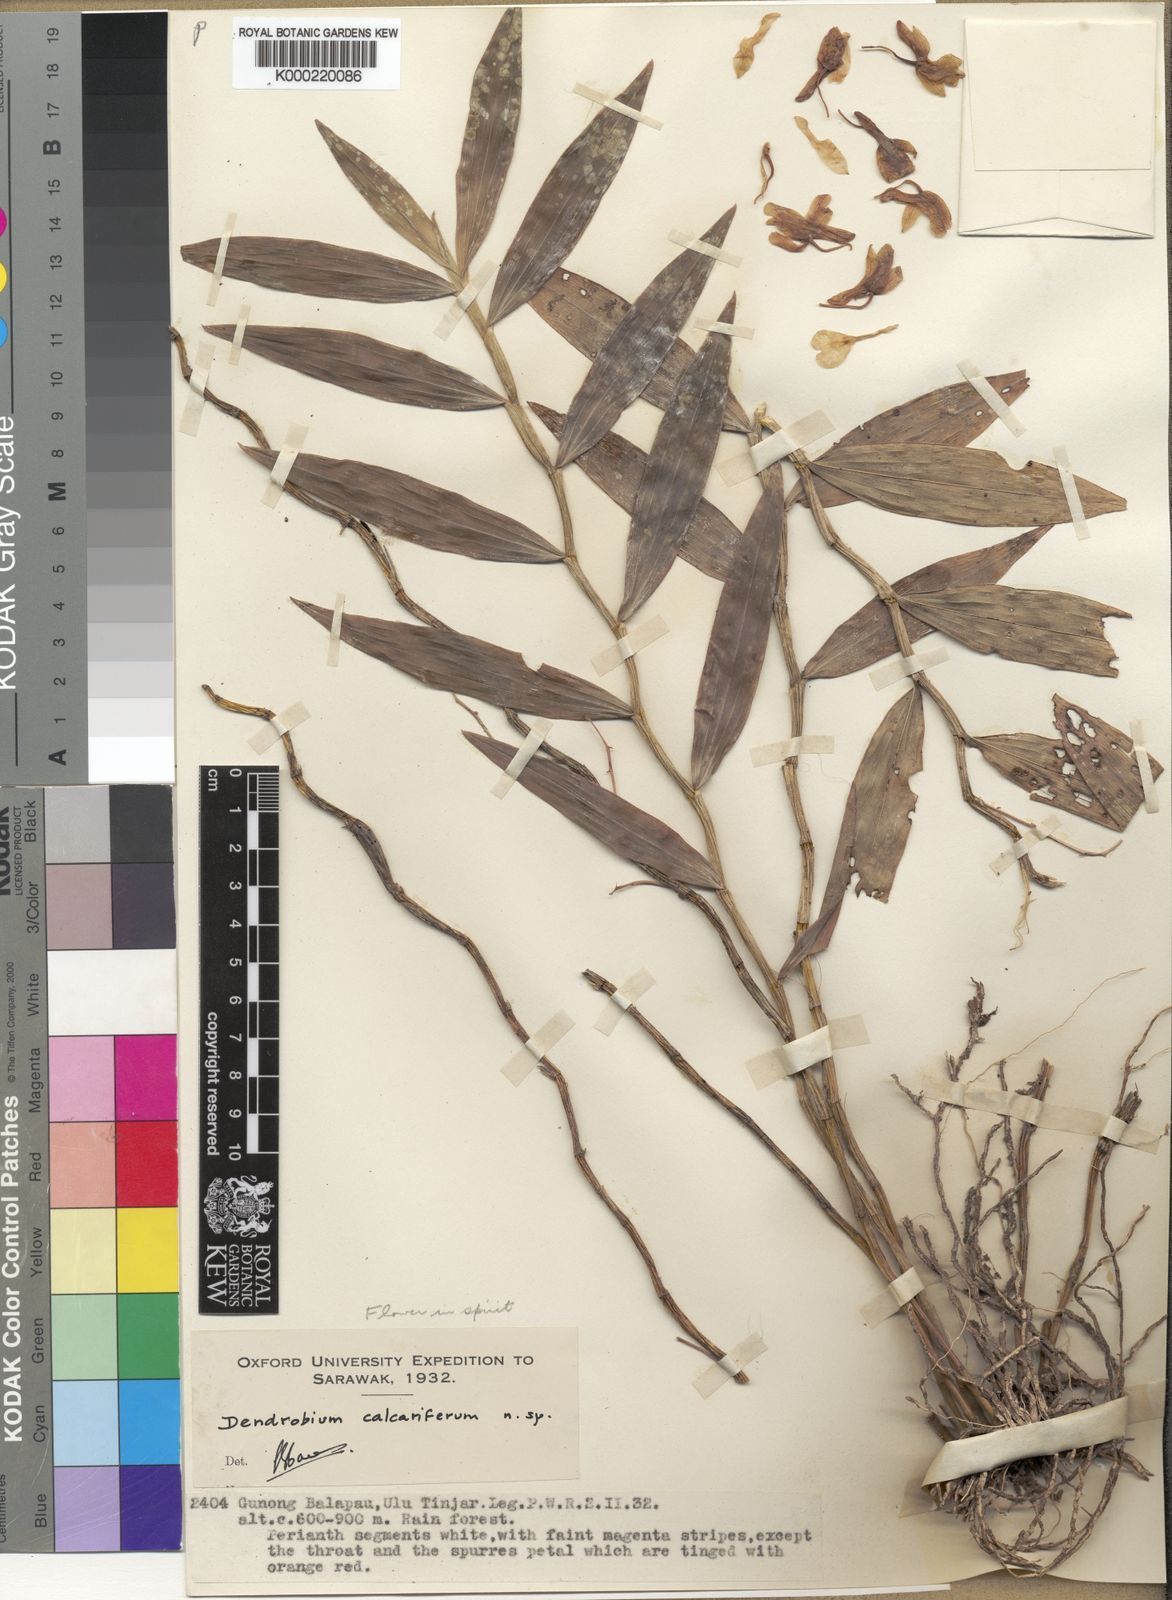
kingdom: Plantae
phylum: Tracheophyta
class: Liliopsida
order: Asparagales
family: Orchidaceae
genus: Dendrobium
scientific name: Dendrobium calcariferum
